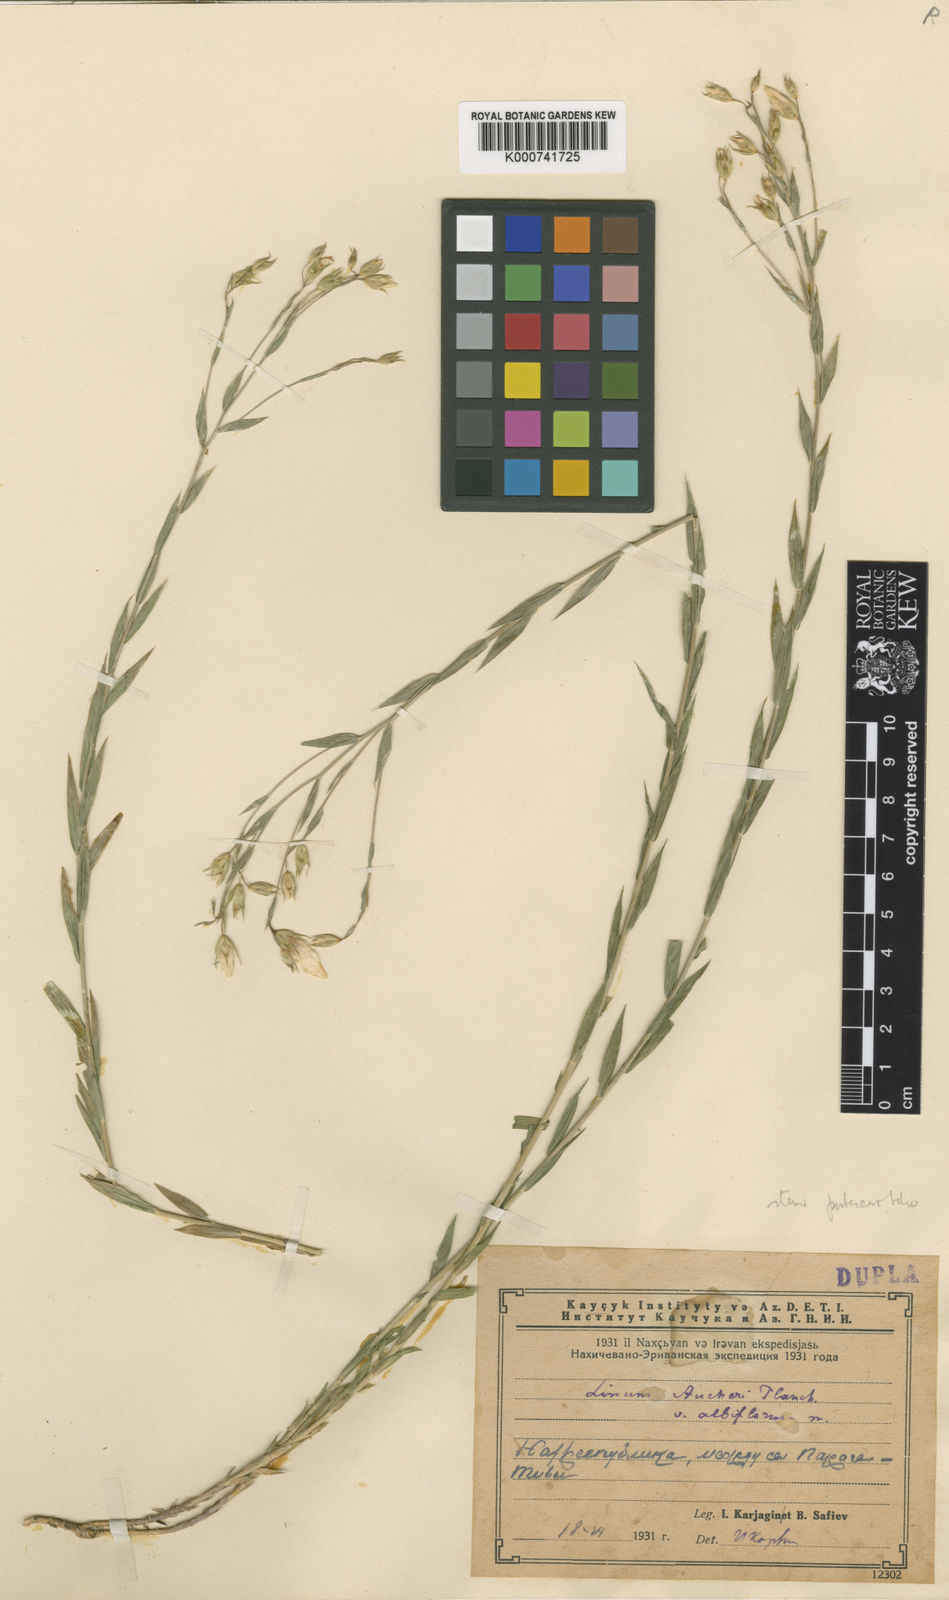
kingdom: Plantae
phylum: Tracheophyta
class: Magnoliopsida
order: Malpighiales
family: Linaceae
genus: Linum
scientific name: Linum nervosum
